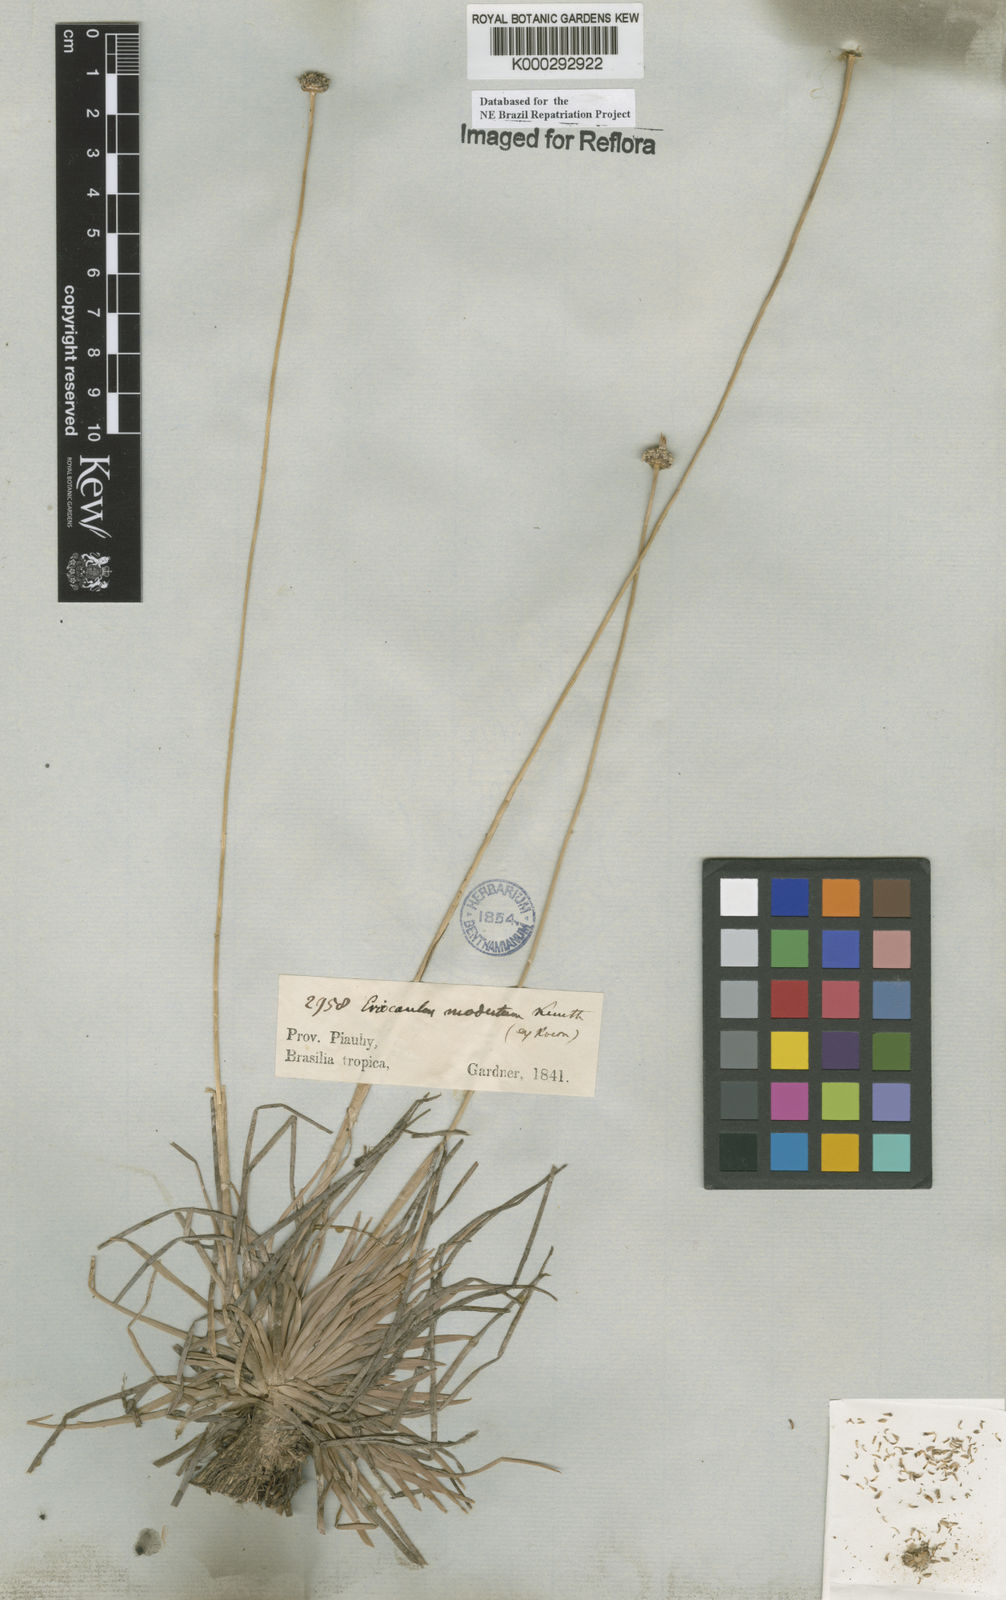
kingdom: Plantae
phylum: Tracheophyta
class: Liliopsida
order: Poales
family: Eriocaulaceae
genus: Eriocaulon
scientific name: Eriocaulon modestum
